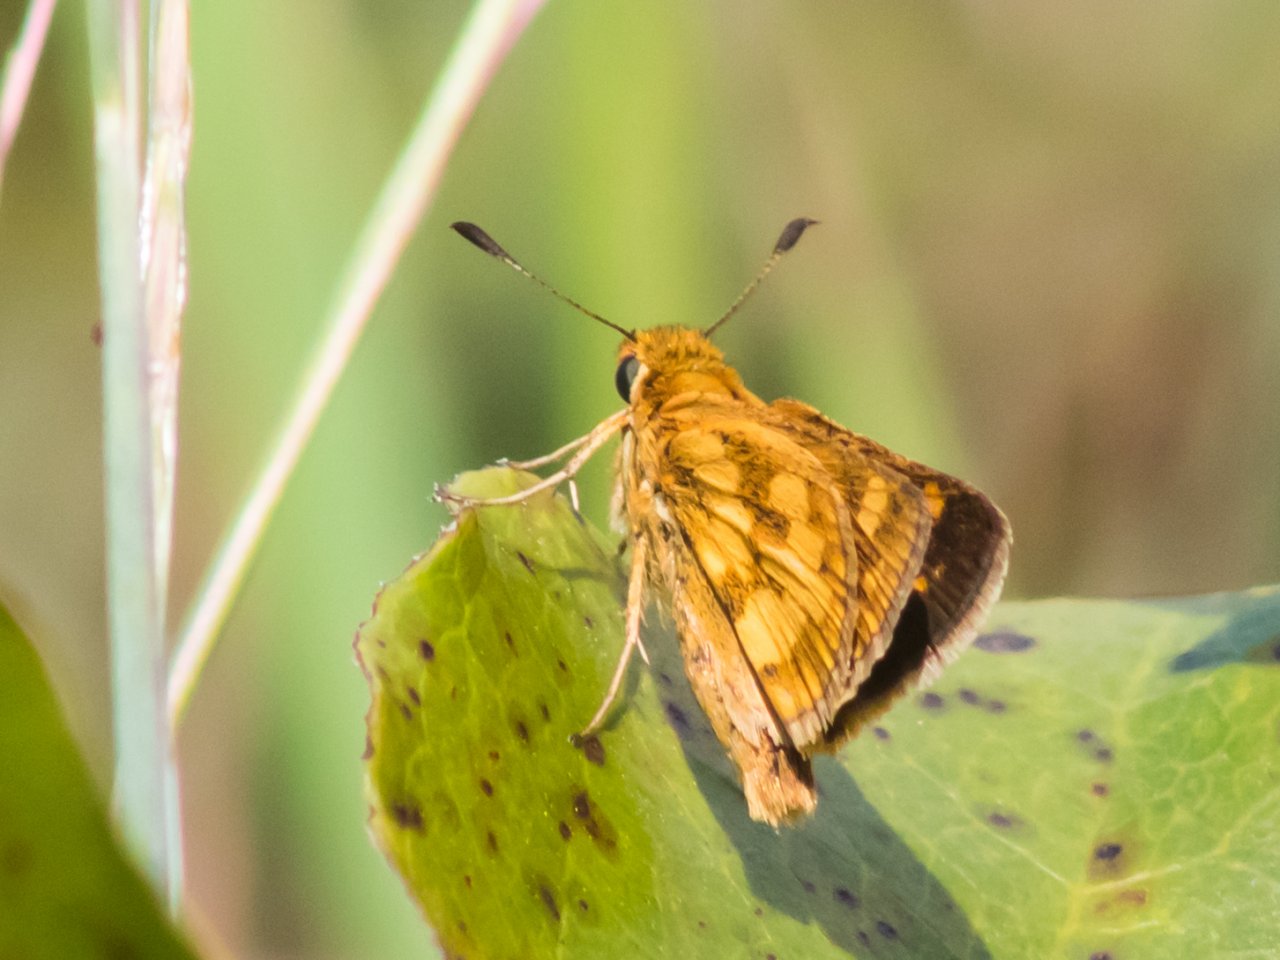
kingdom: Animalia
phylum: Arthropoda
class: Insecta
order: Lepidoptera
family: Hesperiidae
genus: Polites
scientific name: Polites coras
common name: Peck's Skipper
